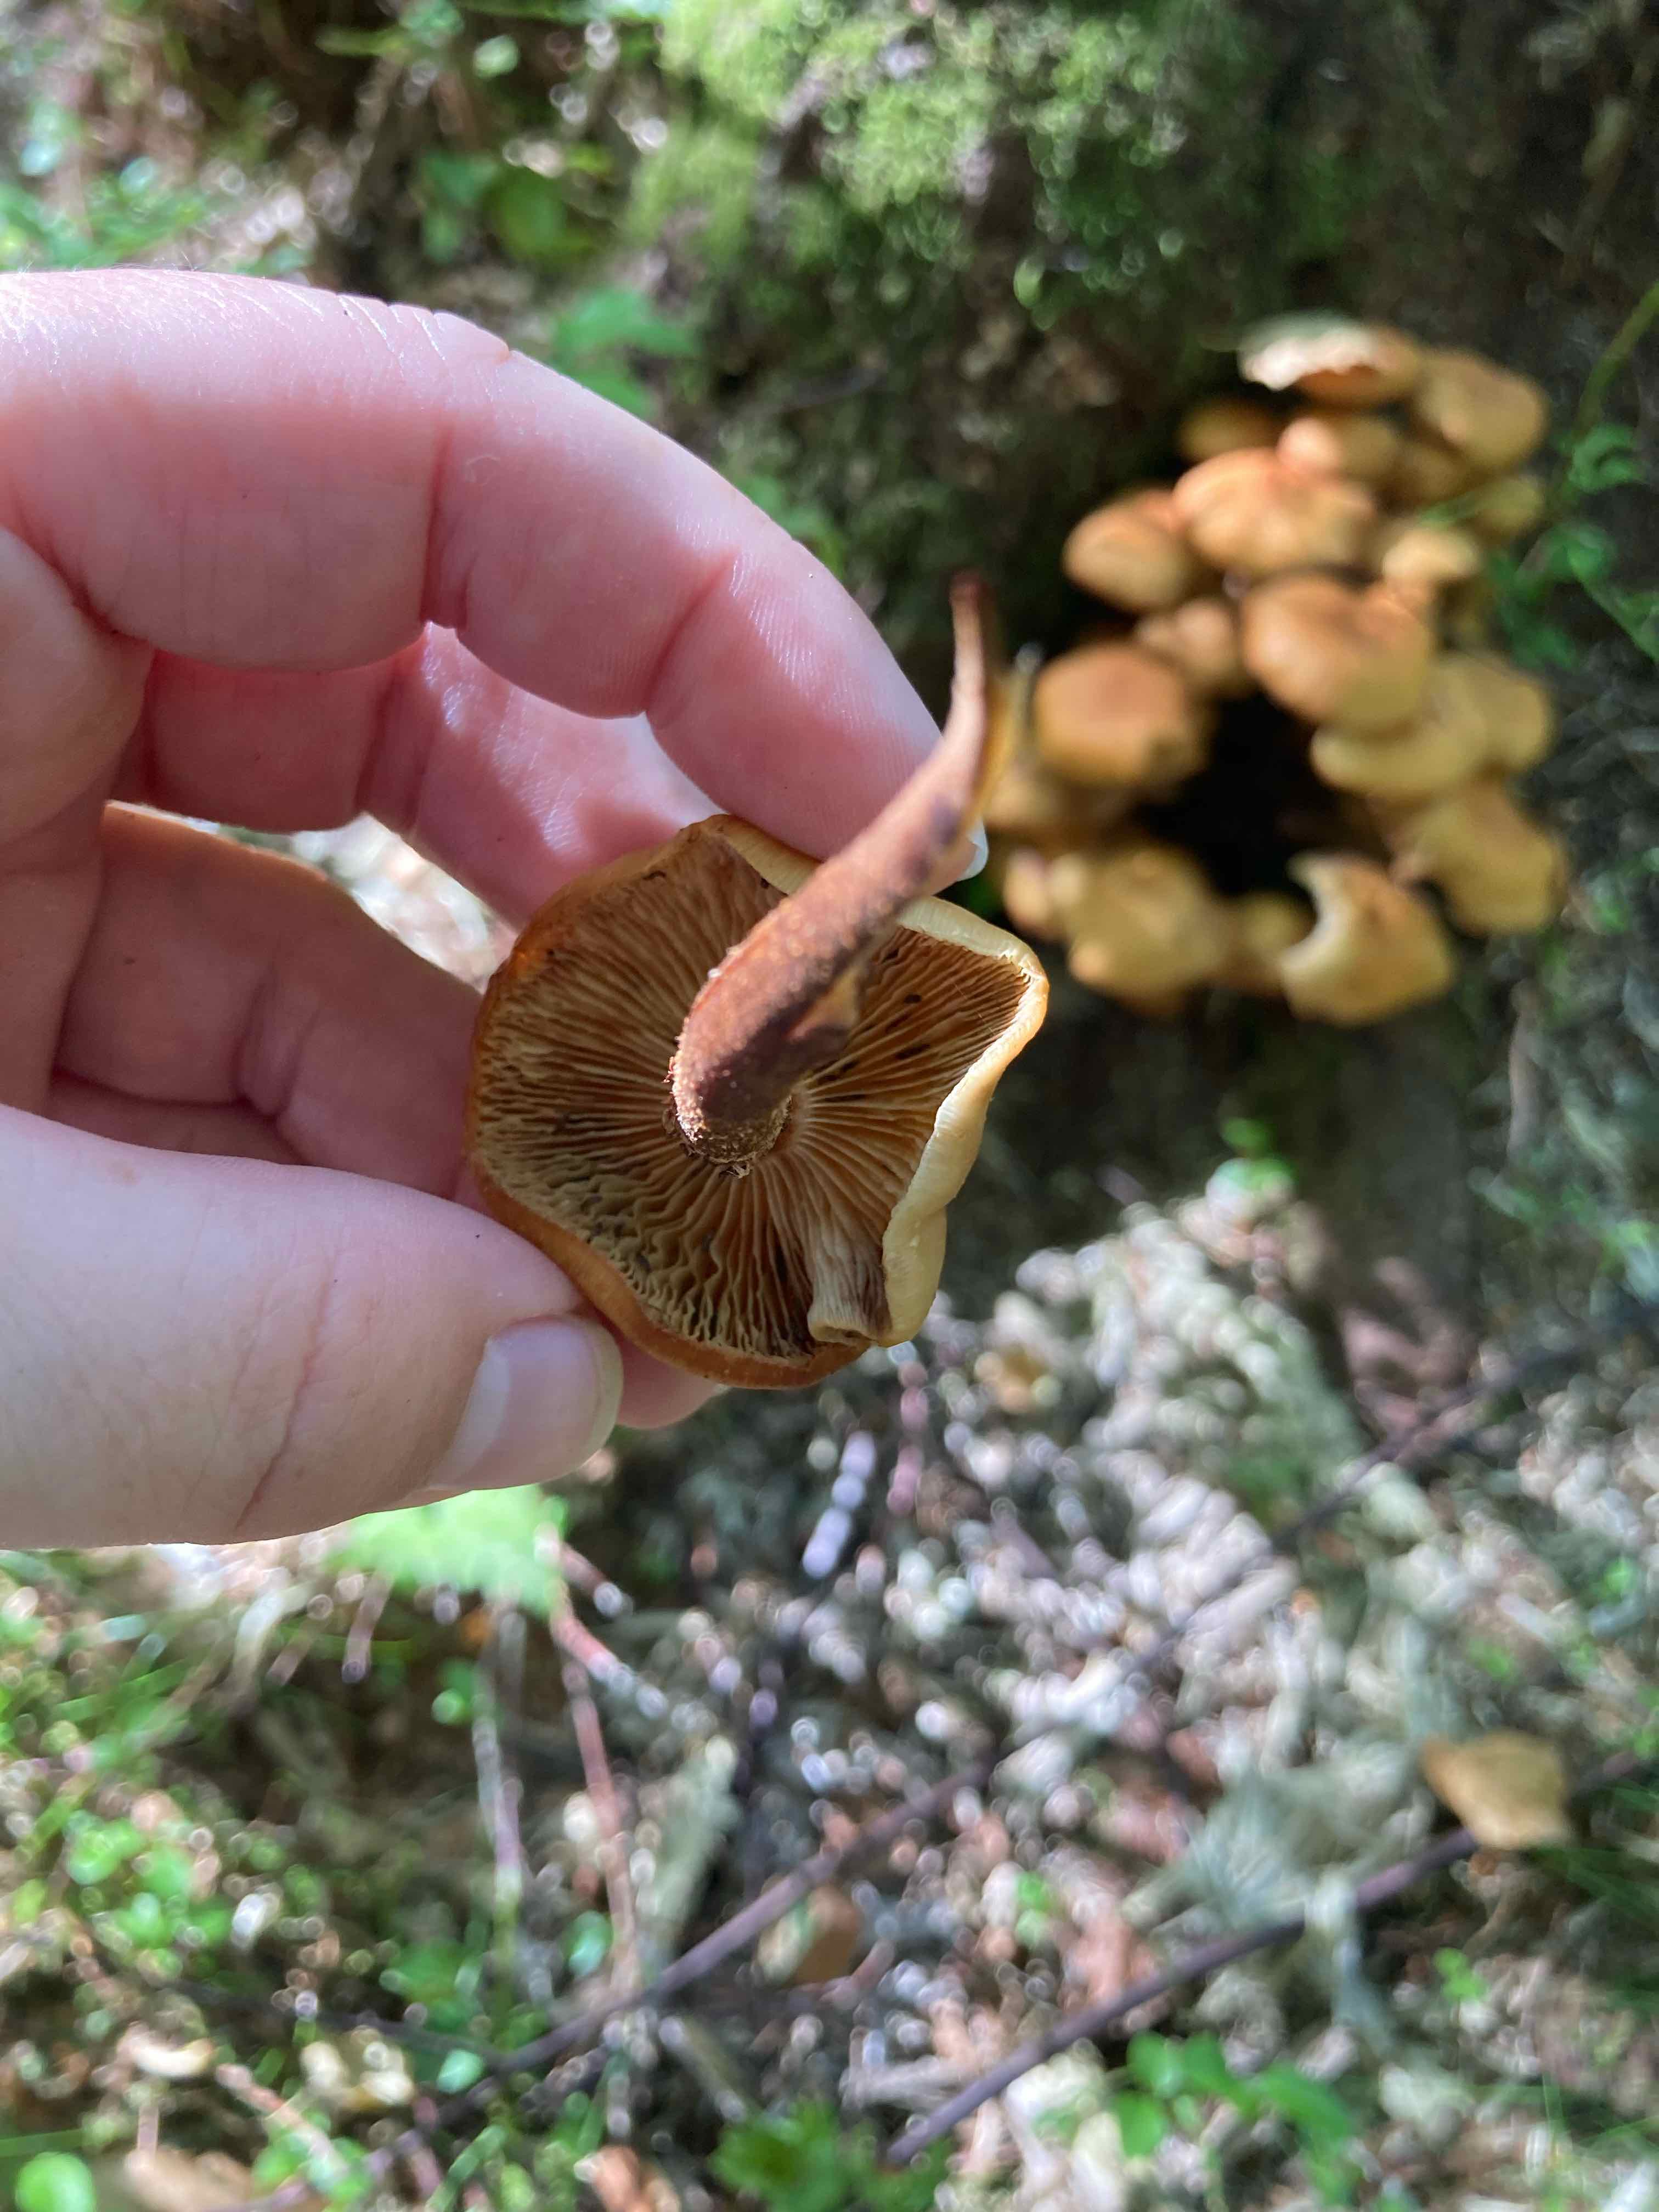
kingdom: Fungi
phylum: Basidiomycota
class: Agaricomycetes
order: Agaricales
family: Strophariaceae
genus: Kuehneromyces
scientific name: Kuehneromyces mutabilis
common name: foranderlig skælhat
